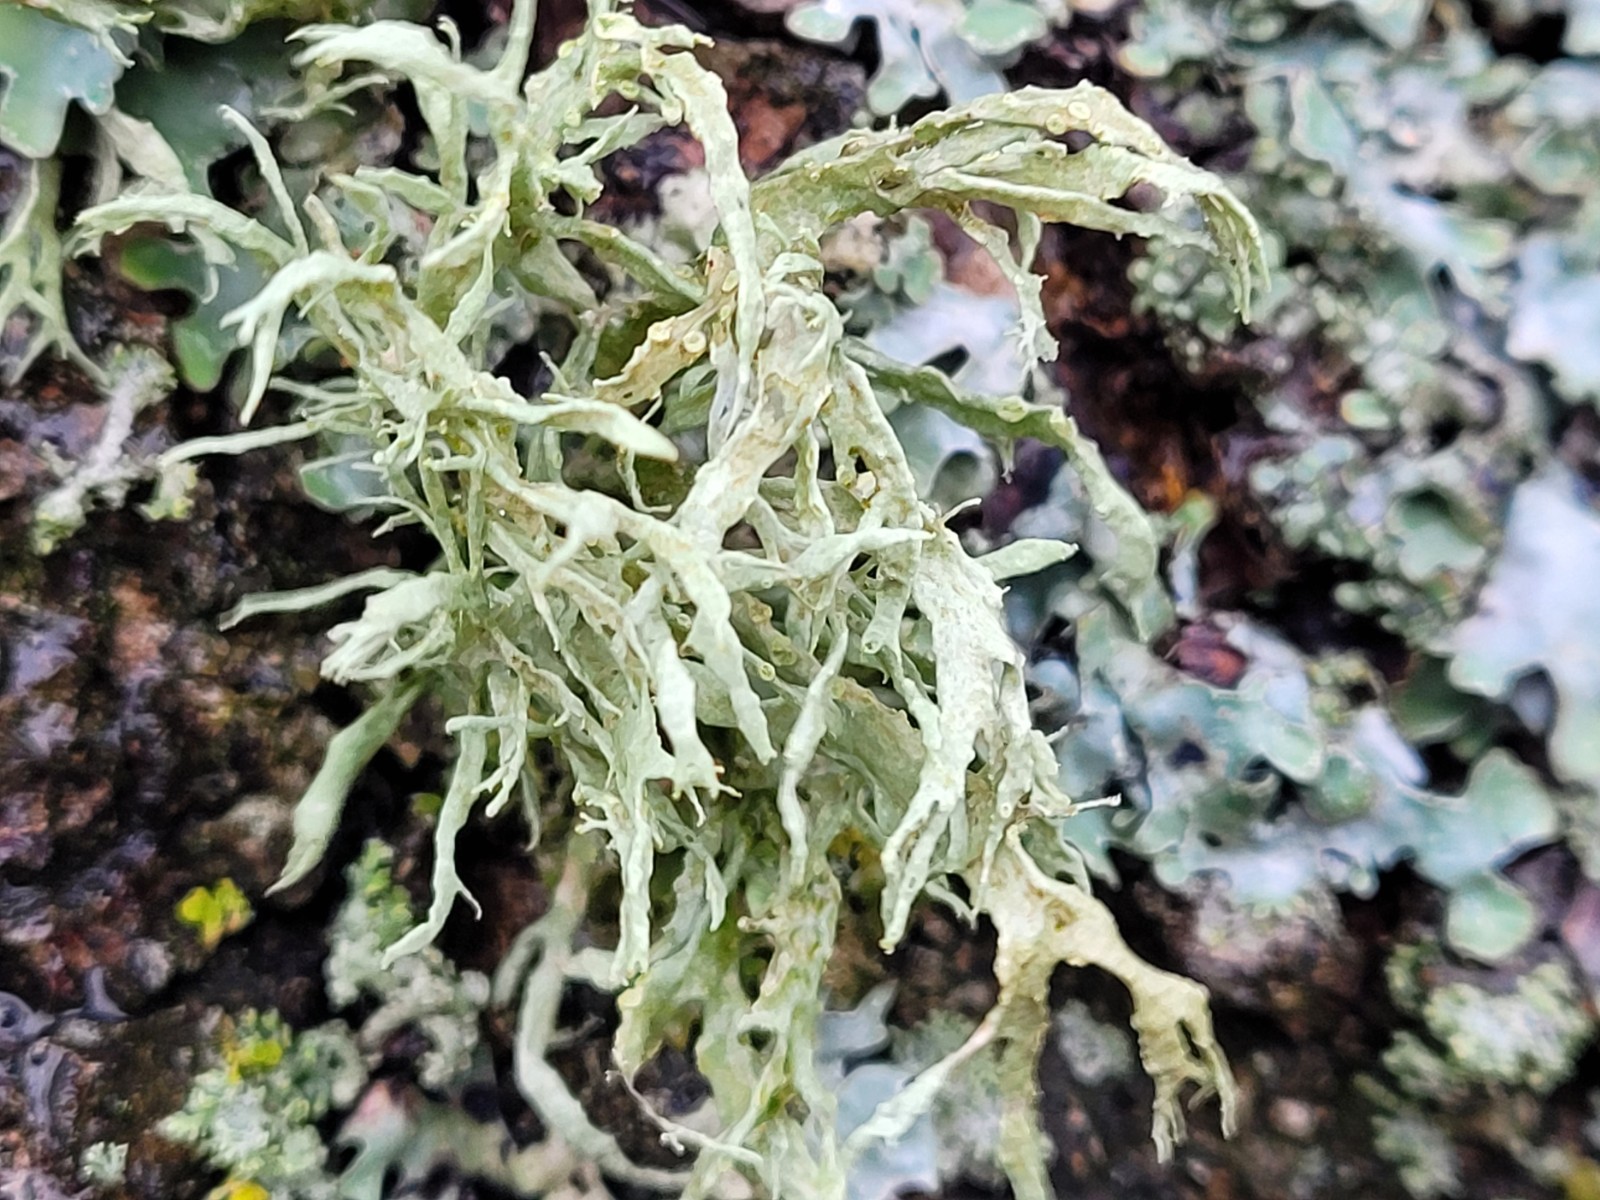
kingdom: Fungi
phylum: Ascomycota
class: Lecanoromycetes
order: Lecanorales
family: Ramalinaceae
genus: Ramalina
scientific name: Ramalina farinacea
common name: melet grenlav
